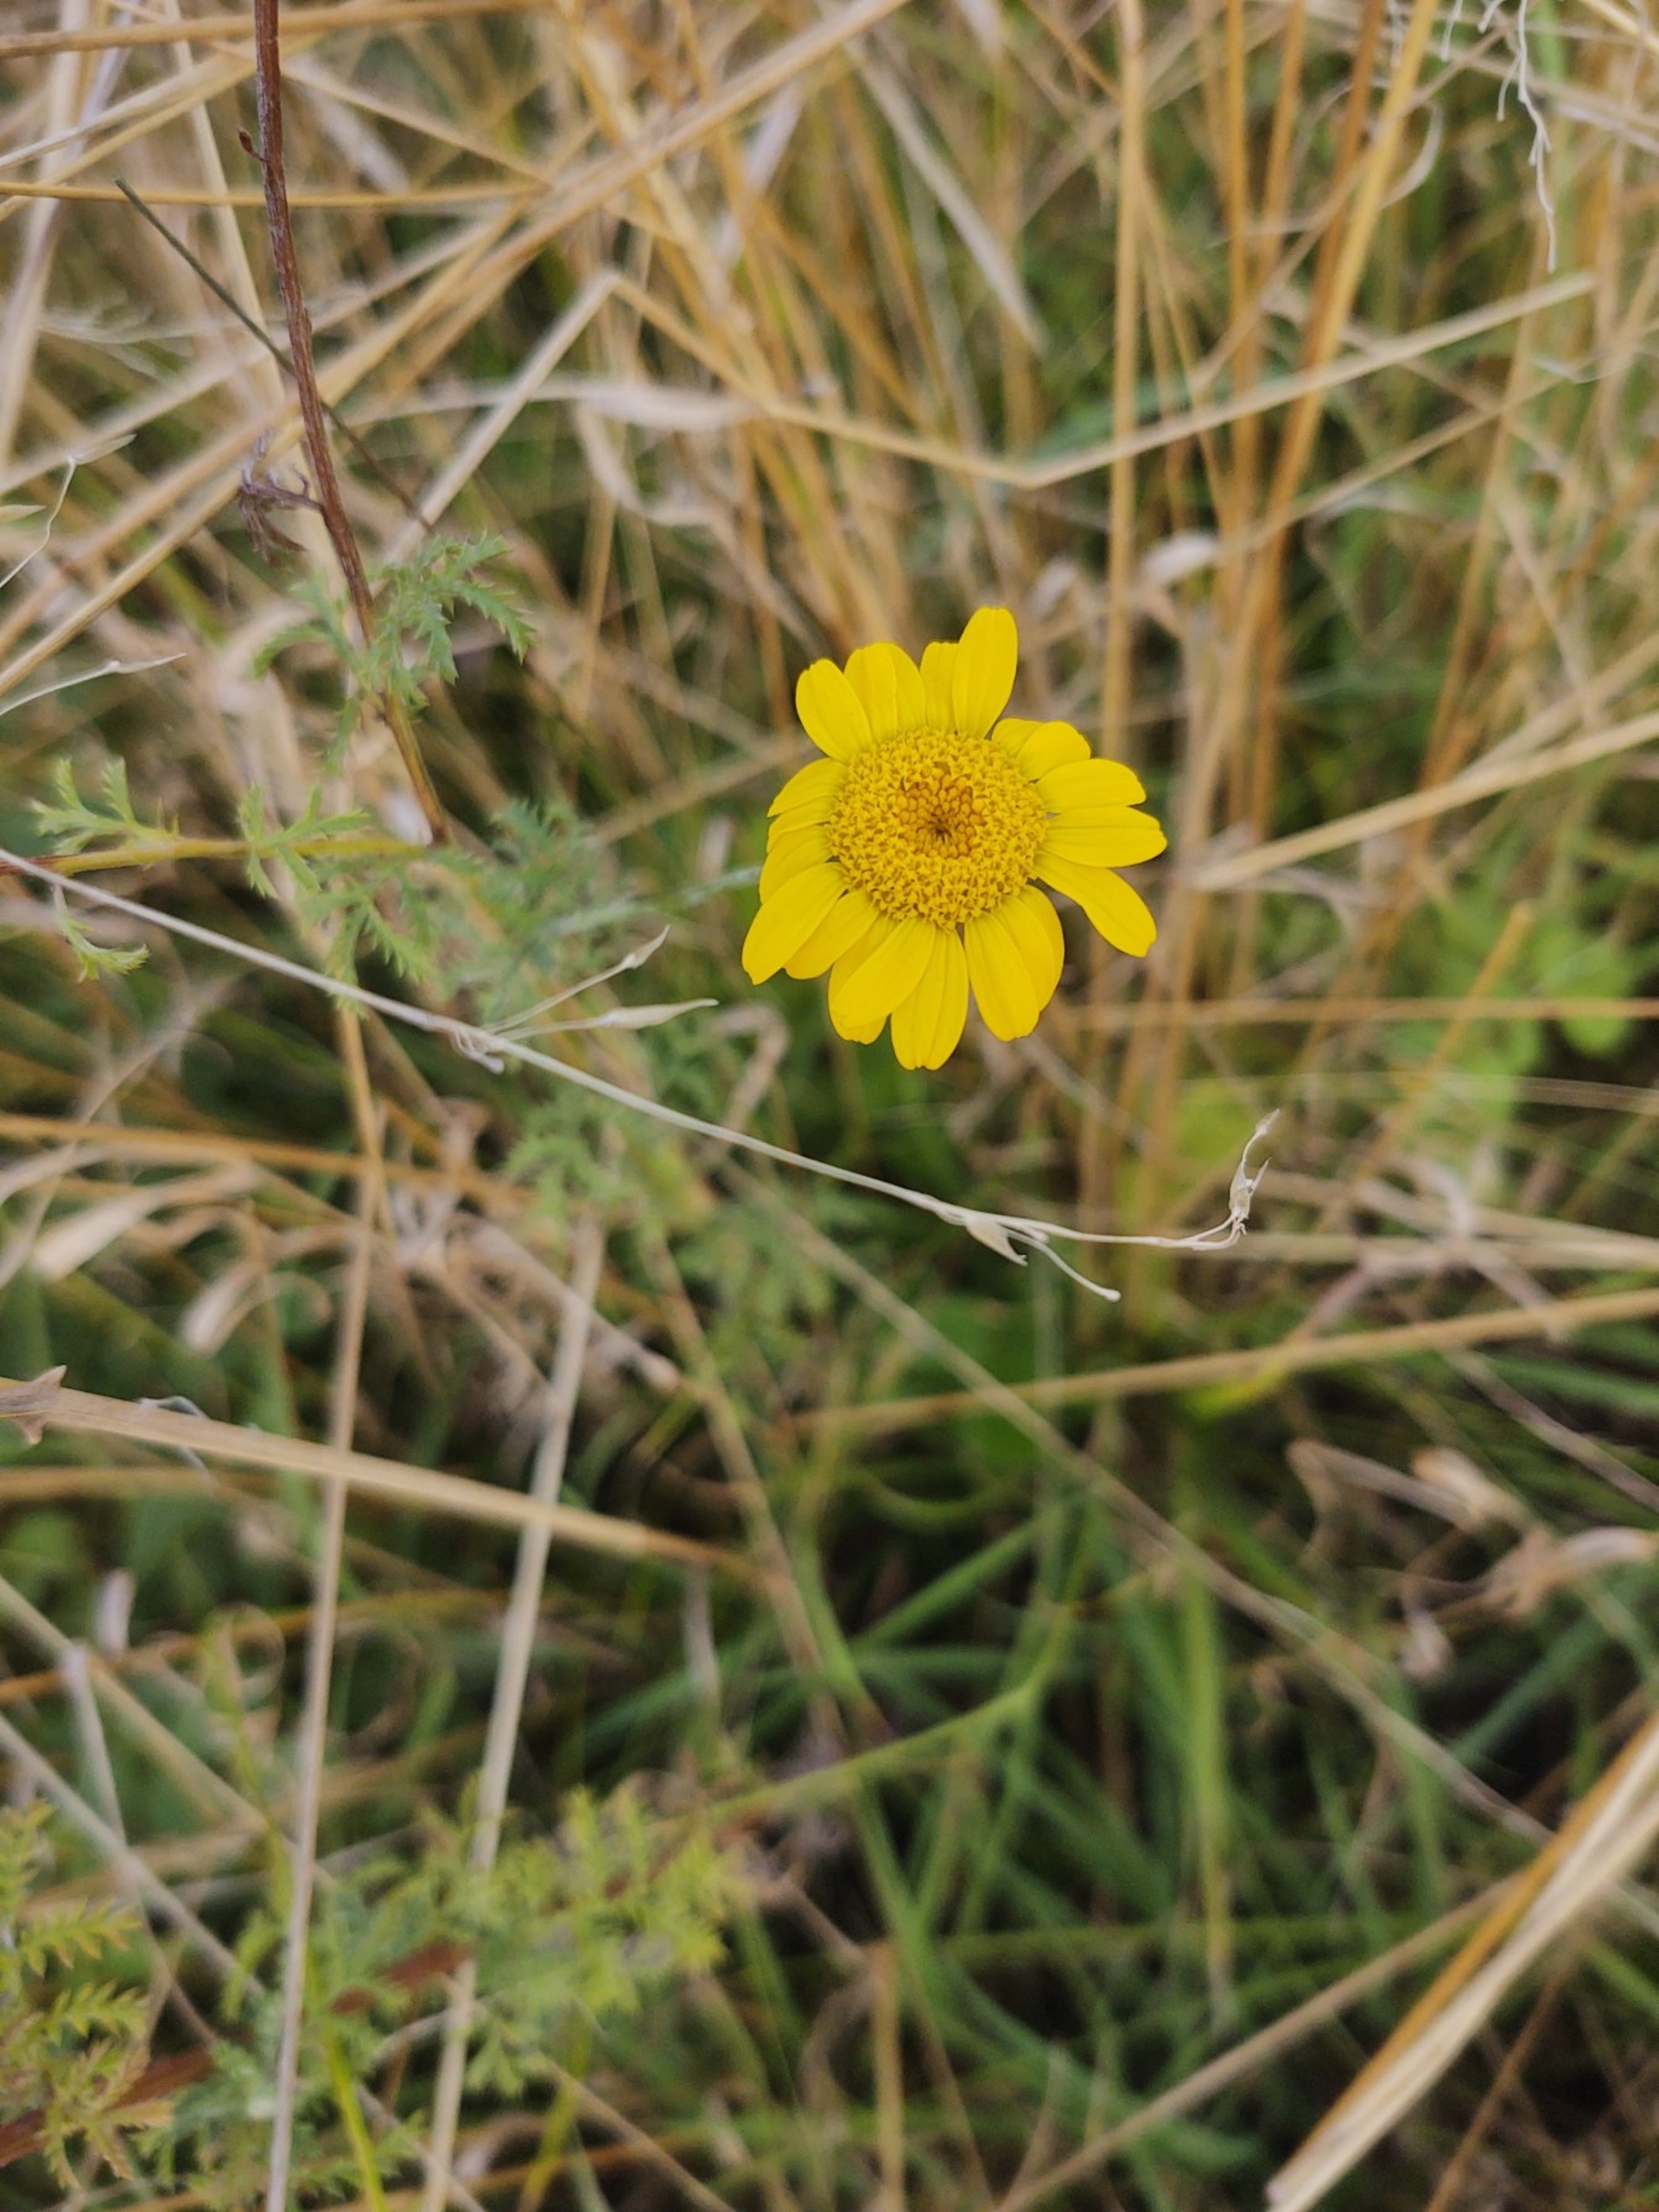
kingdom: Plantae
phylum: Tracheophyta
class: Magnoliopsida
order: Asterales
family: Asteraceae
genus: Cota
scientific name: Cota tinctoria
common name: Farve-gåseurt
